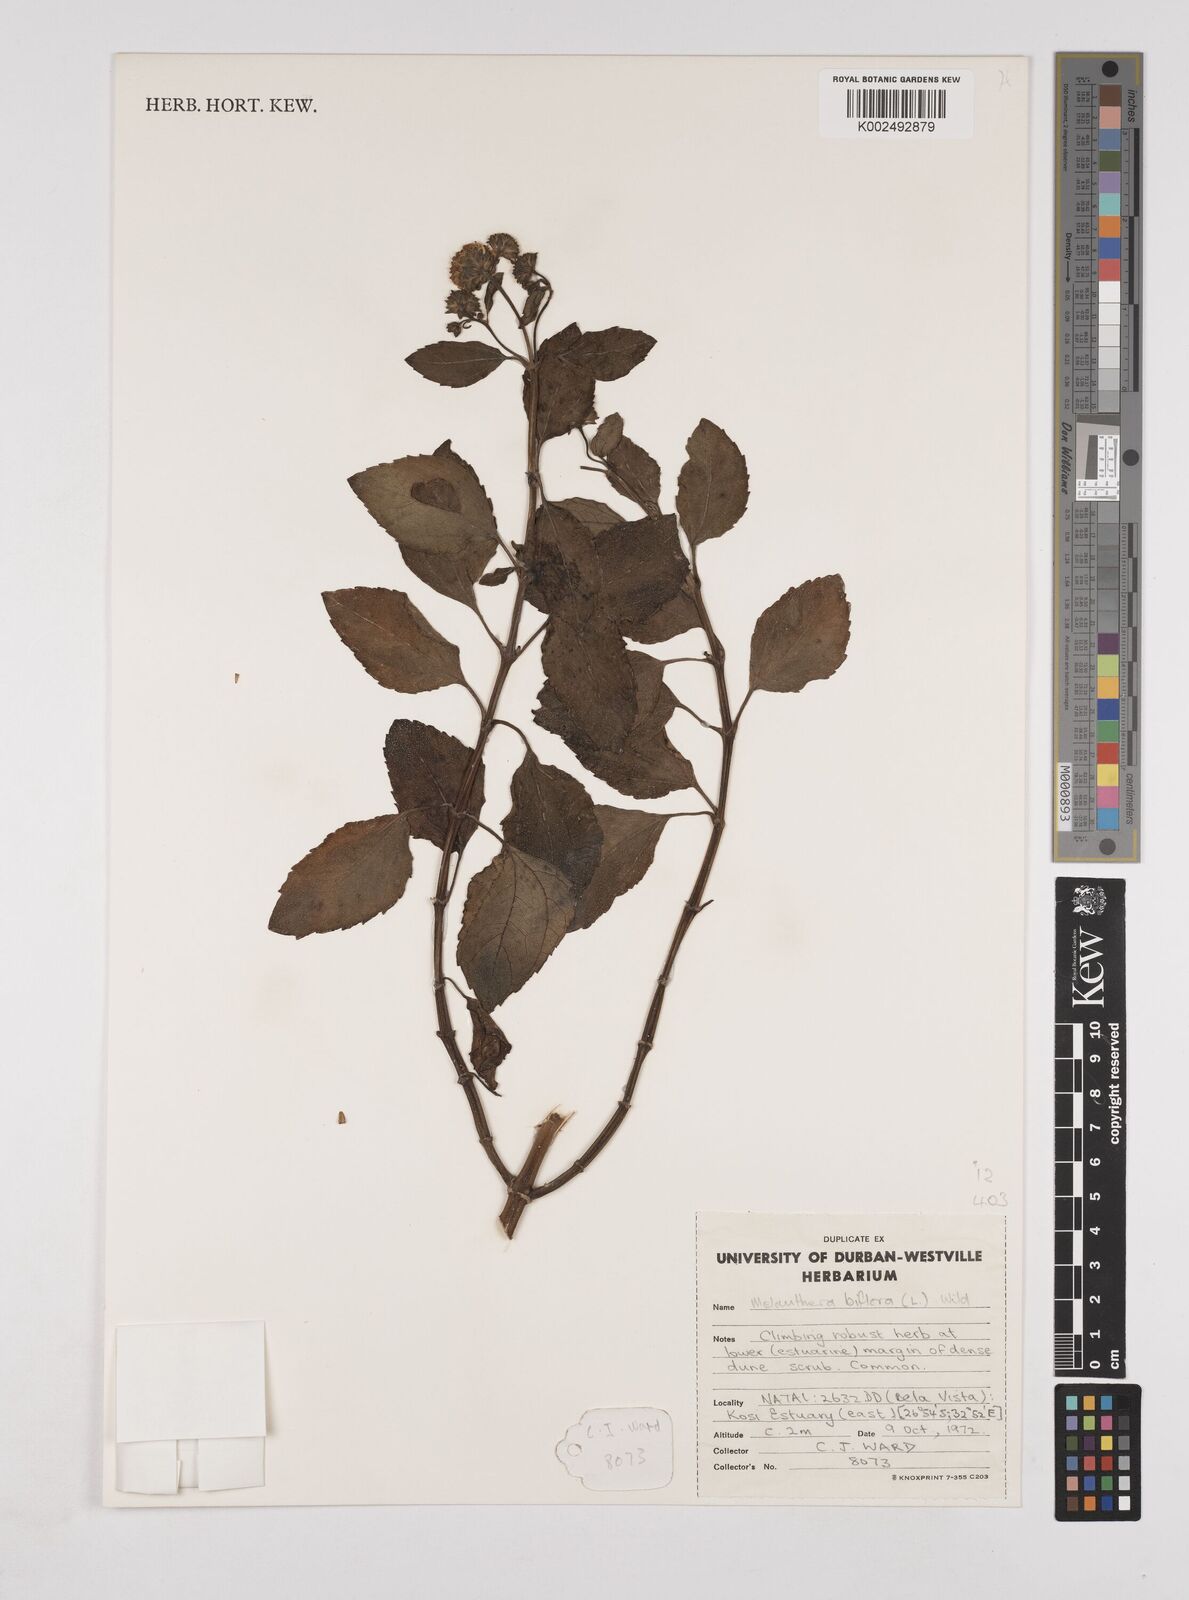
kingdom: Plantae
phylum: Tracheophyta
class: Magnoliopsida
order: Asterales
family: Asteraceae
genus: Wollastonia
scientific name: Wollastonia biflora
